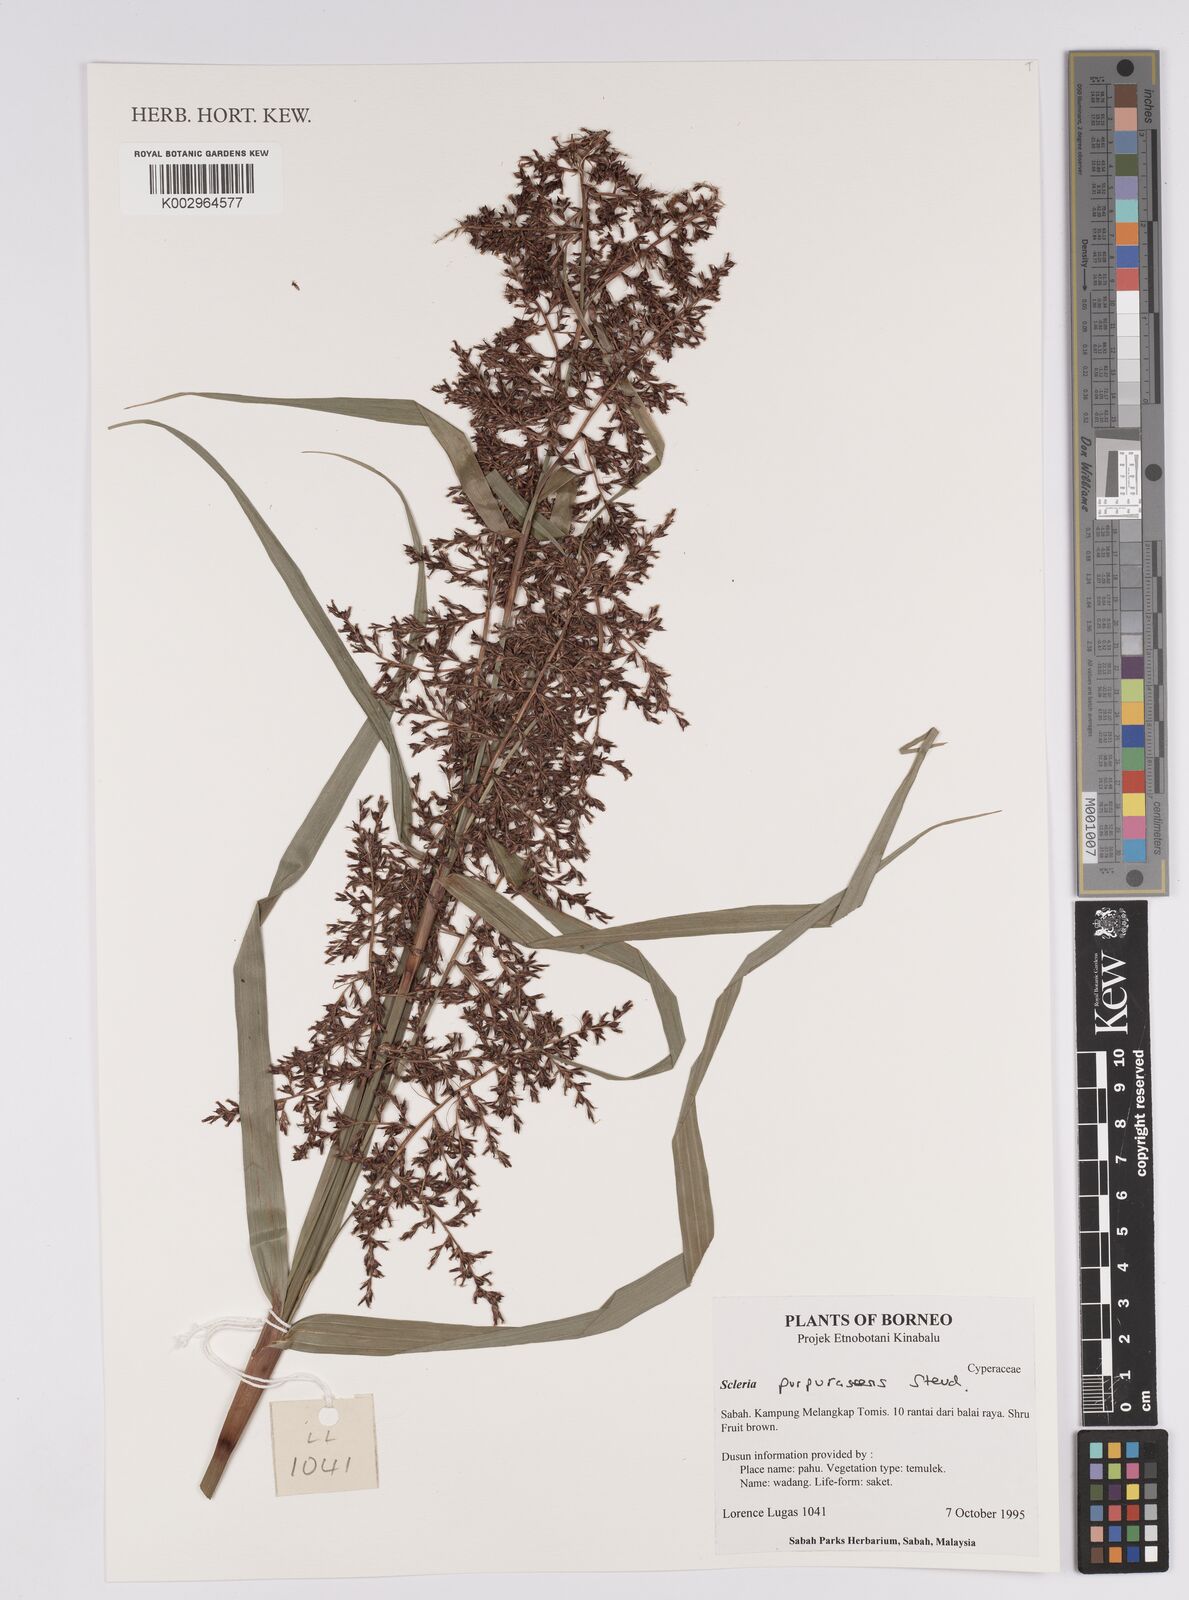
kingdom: Plantae
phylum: Tracheophyta
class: Liliopsida
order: Poales
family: Cyperaceae
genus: Scleria
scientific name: Scleria purpurascens
